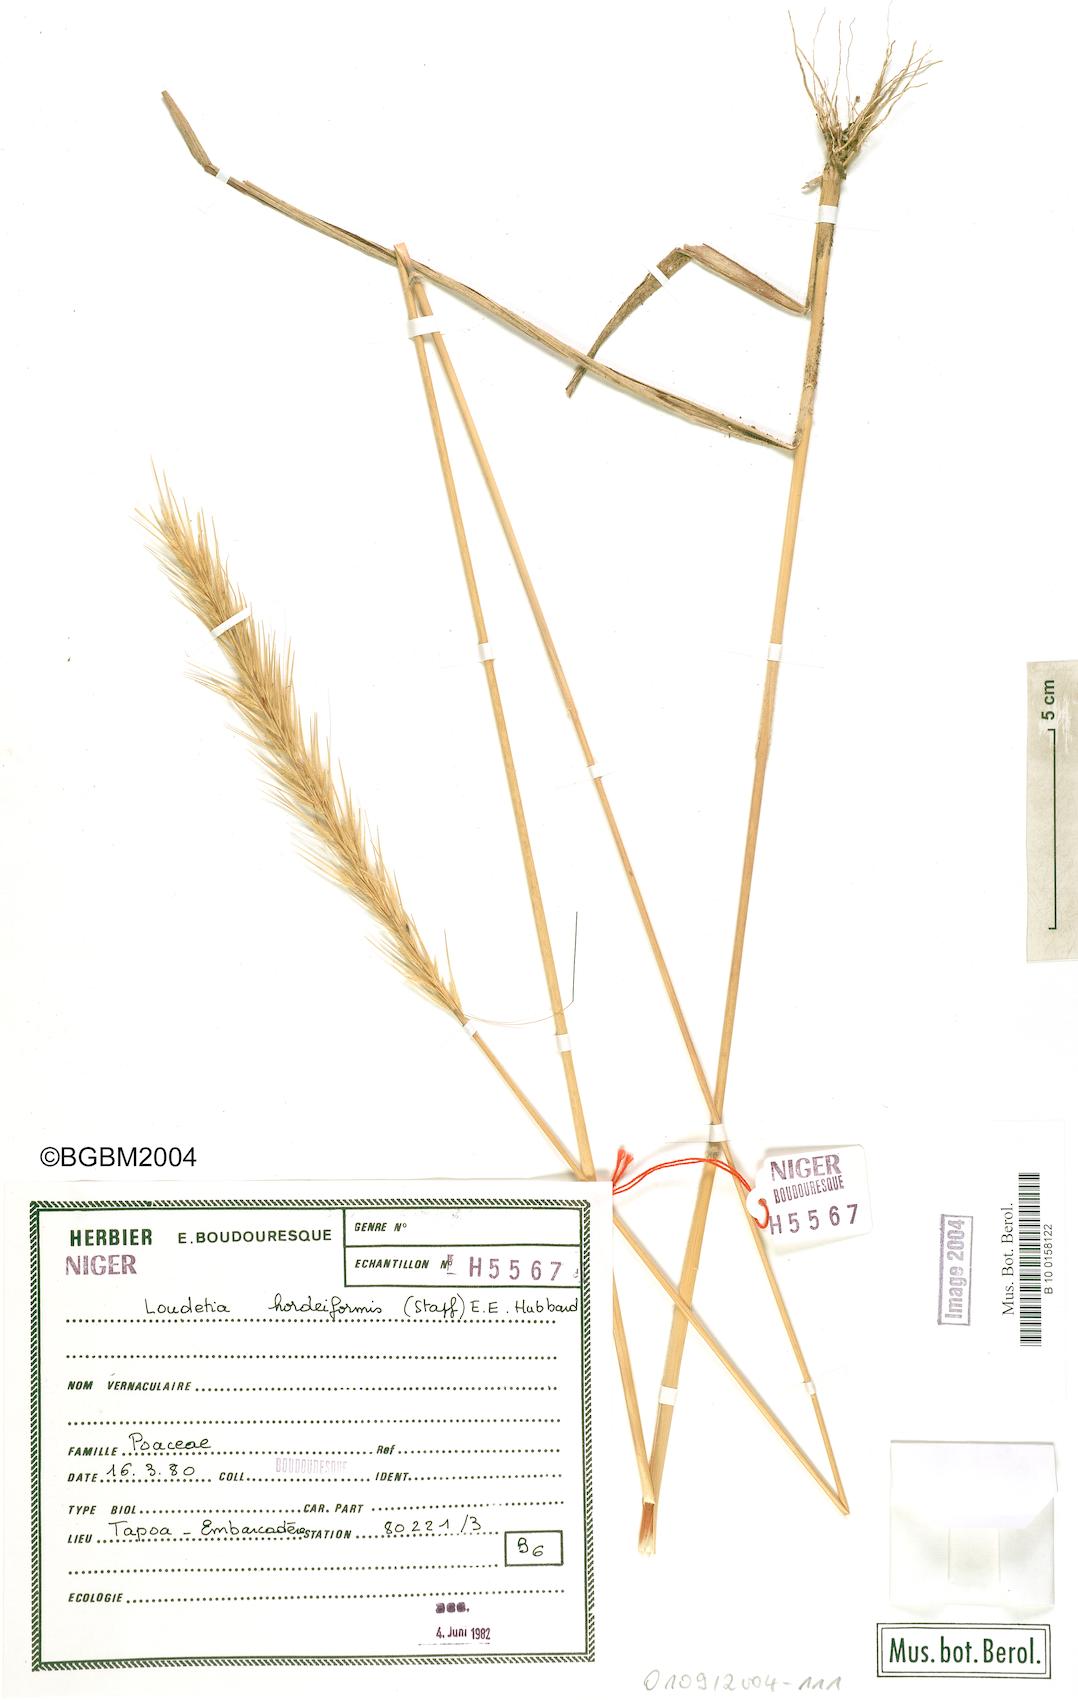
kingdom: Plantae
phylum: Tracheophyta
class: Liliopsida
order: Poales
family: Poaceae
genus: Loudetia
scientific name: Loudetia hordeiformis
